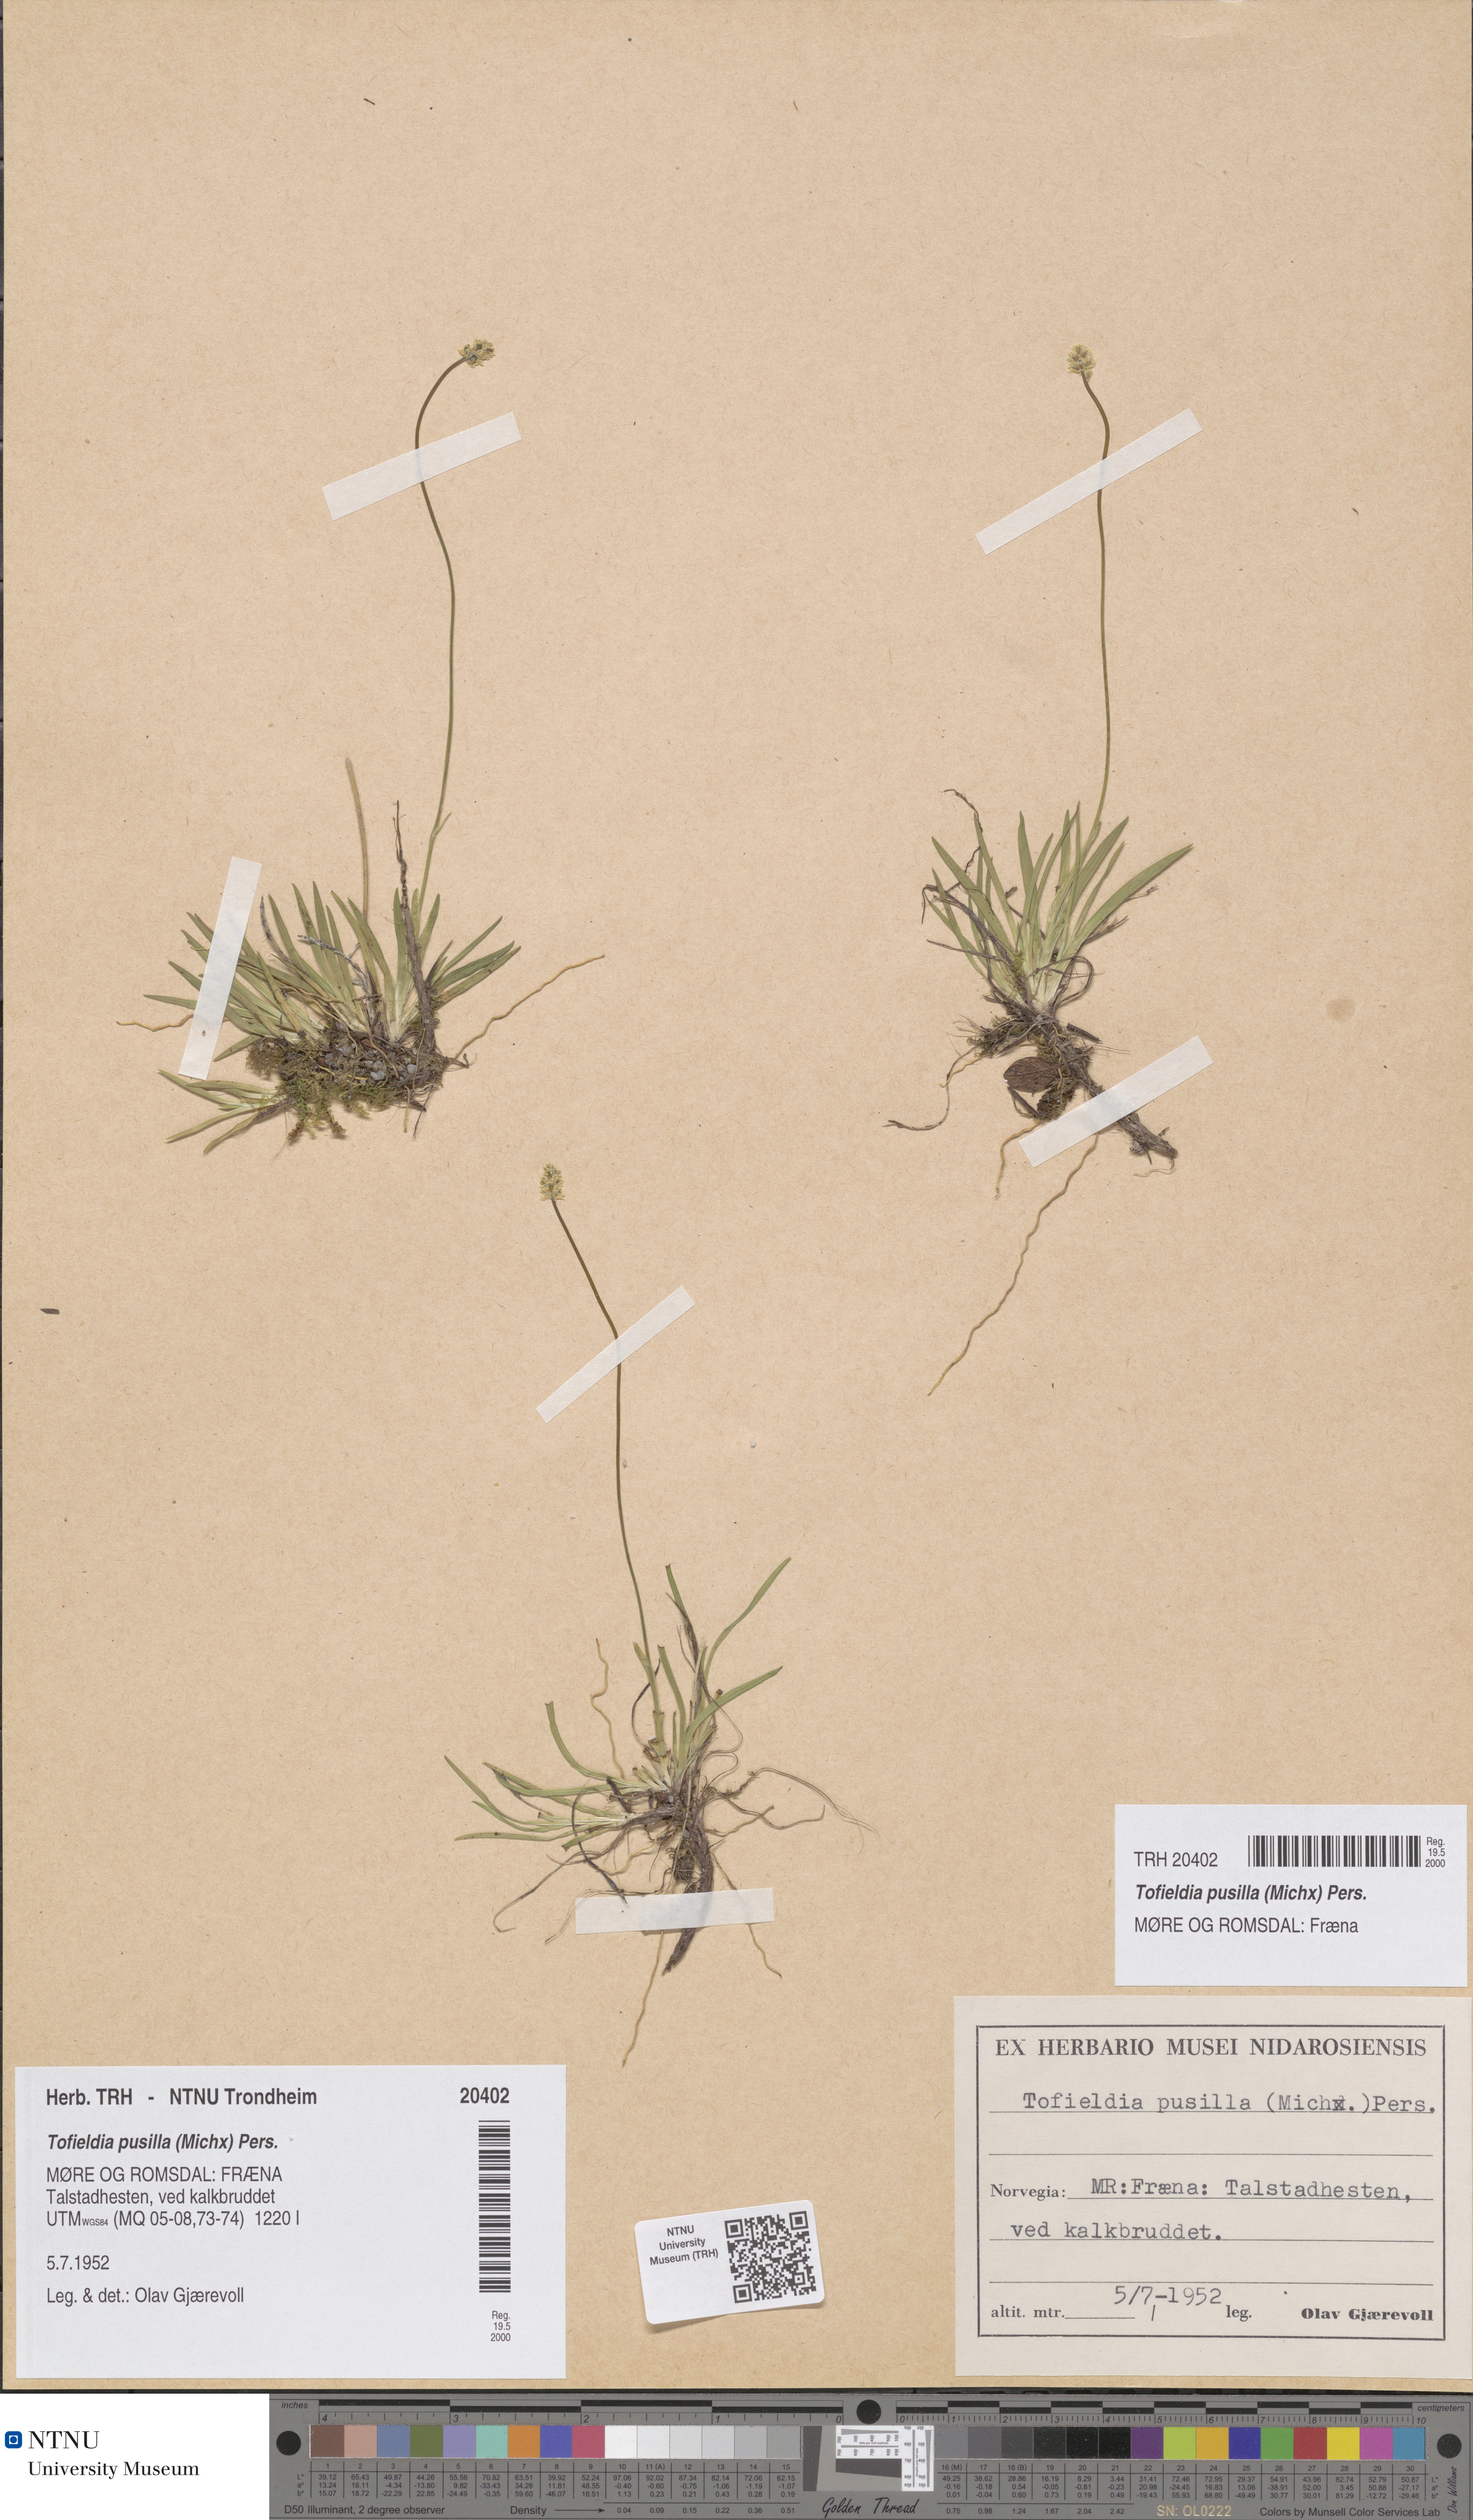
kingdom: Plantae
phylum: Tracheophyta
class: Liliopsida
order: Alismatales
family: Tofieldiaceae
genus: Tofieldia
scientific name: Tofieldia pusilla
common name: Scottish false asphodel
